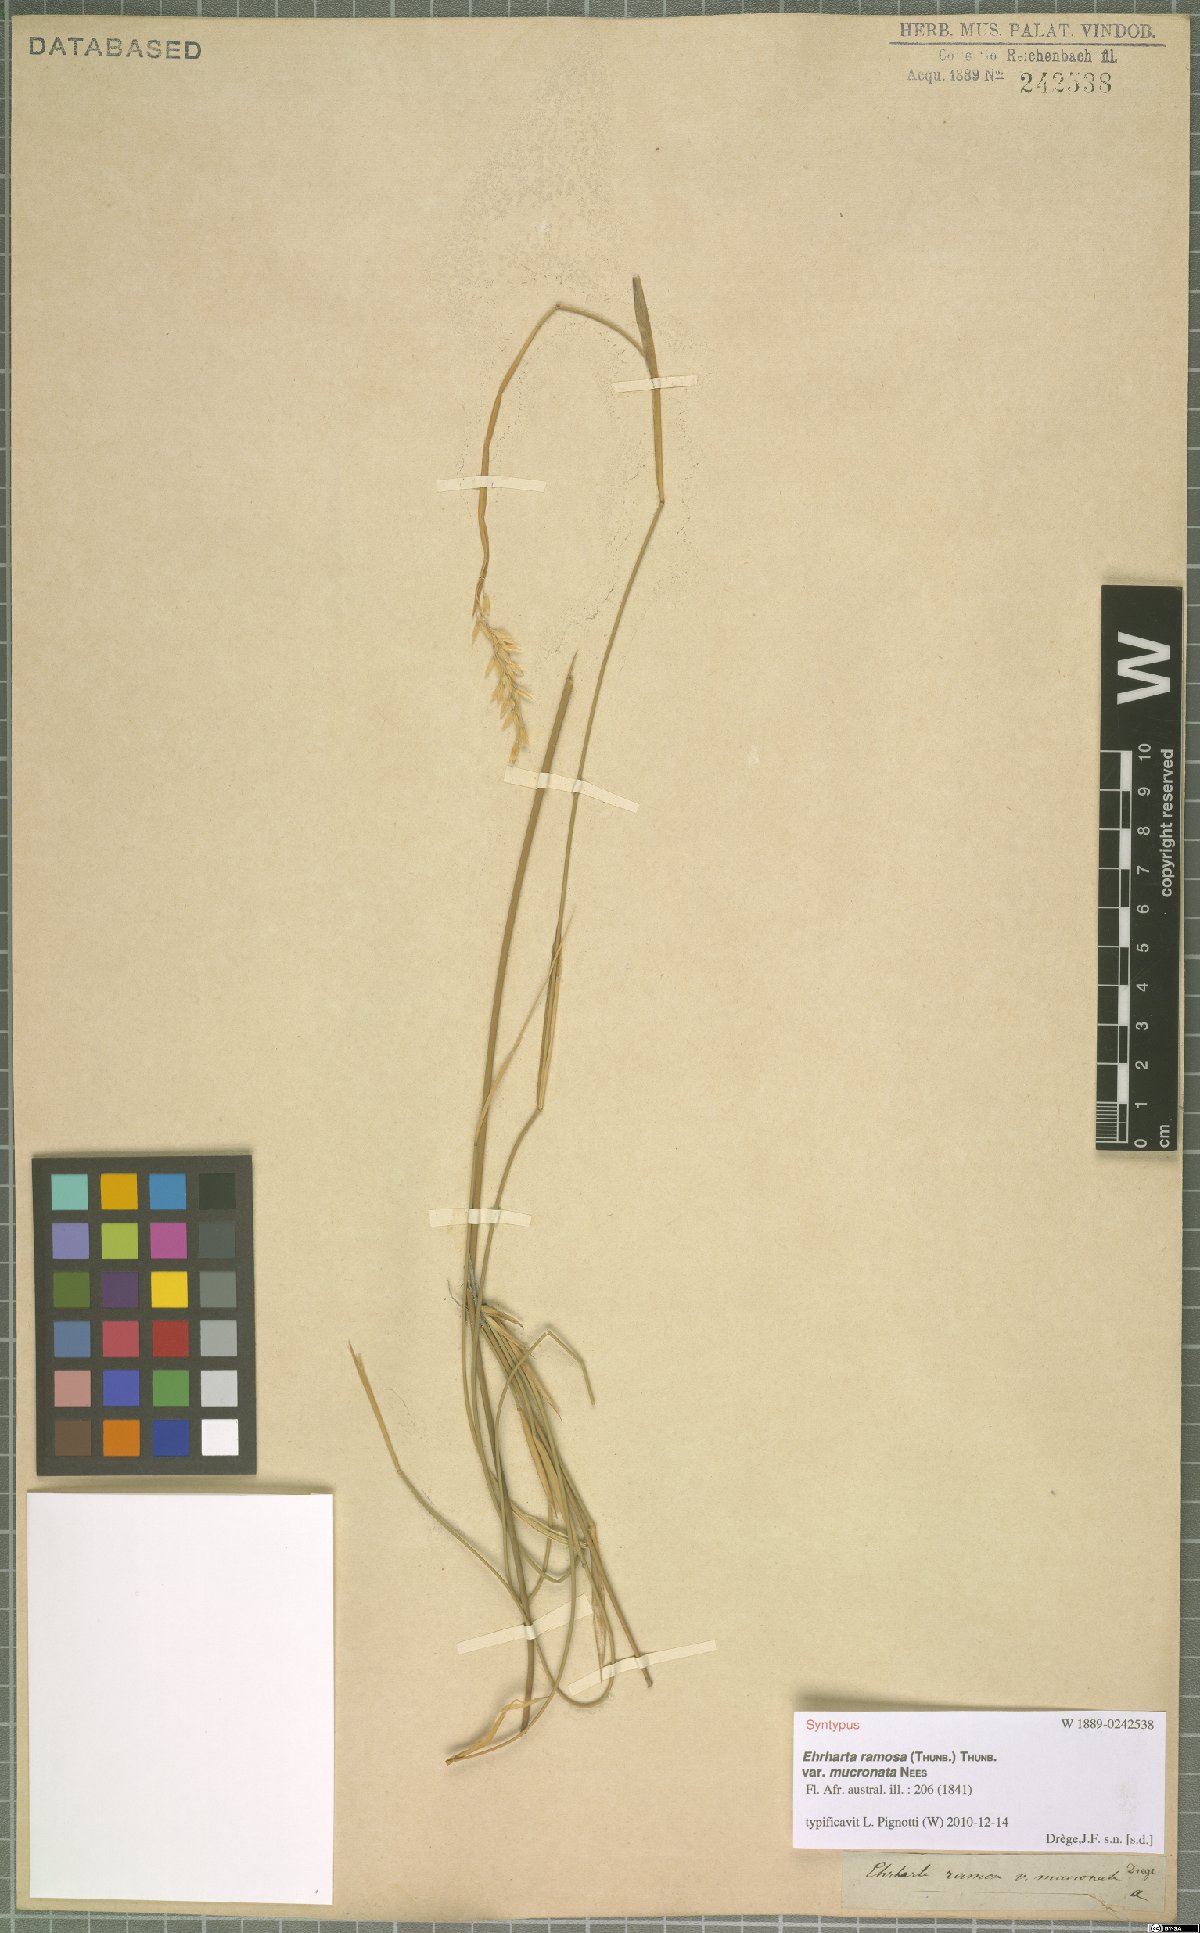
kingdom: Plantae
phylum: Tracheophyta
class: Liliopsida
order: Poales
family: Poaceae
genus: Ehrharta
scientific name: Ehrharta ramosa
